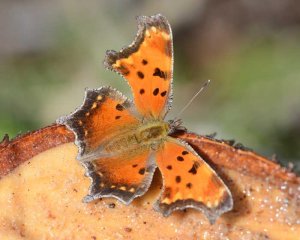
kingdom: Animalia
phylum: Arthropoda
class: Insecta
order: Lepidoptera
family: Nymphalidae
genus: Polygonia
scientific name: Polygonia progne
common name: Gray Comma
